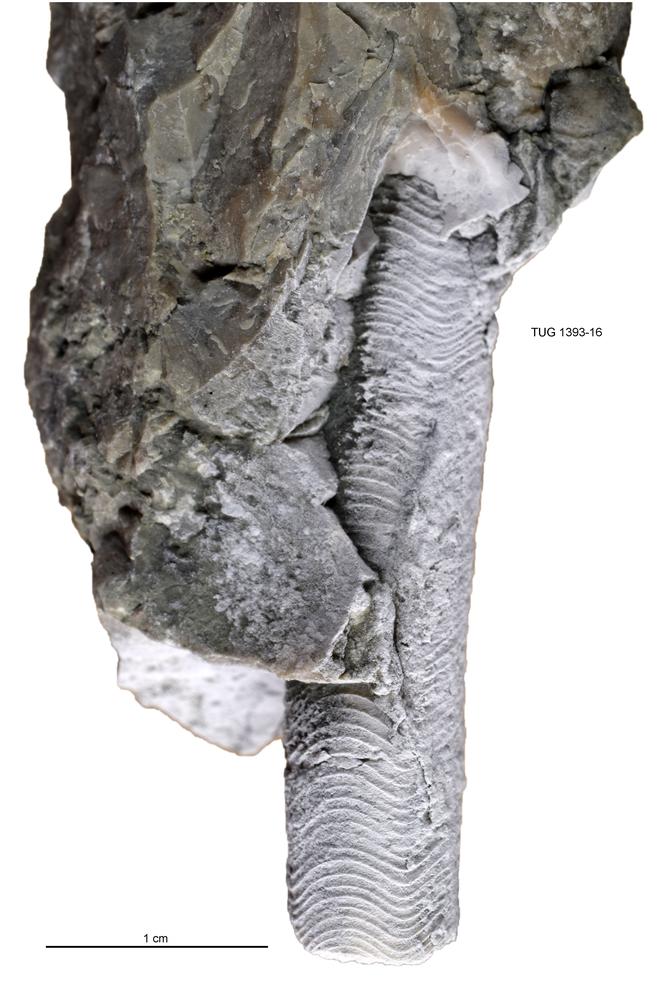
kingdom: Animalia
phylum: Mollusca
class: Cephalopoda
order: Orthocerida
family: Proteoceratidae
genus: Isorthoceras
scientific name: Isorthoceras maris
